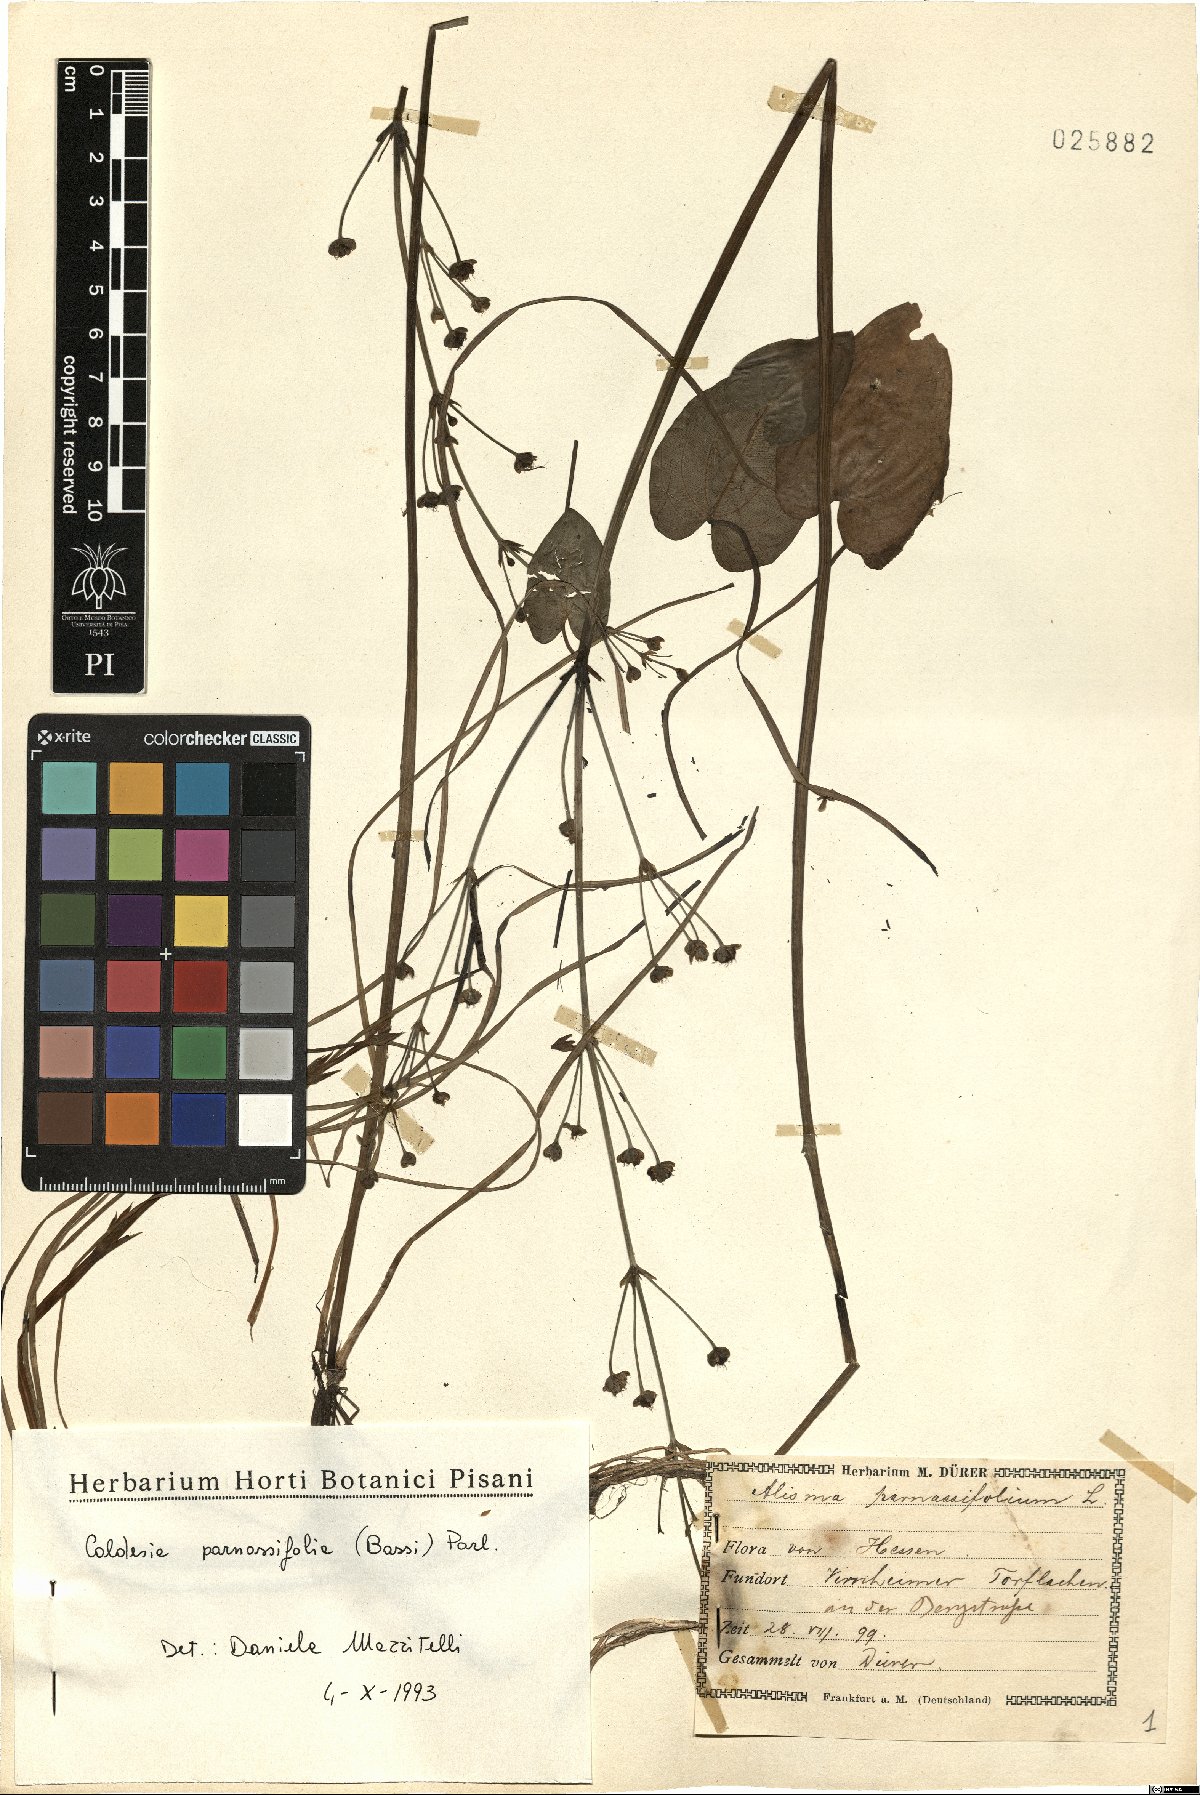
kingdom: Plantae
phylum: Tracheophyta
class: Liliopsida
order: Alismatales
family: Alismataceae
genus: Caldesia
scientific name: Caldesia parnassifolia
